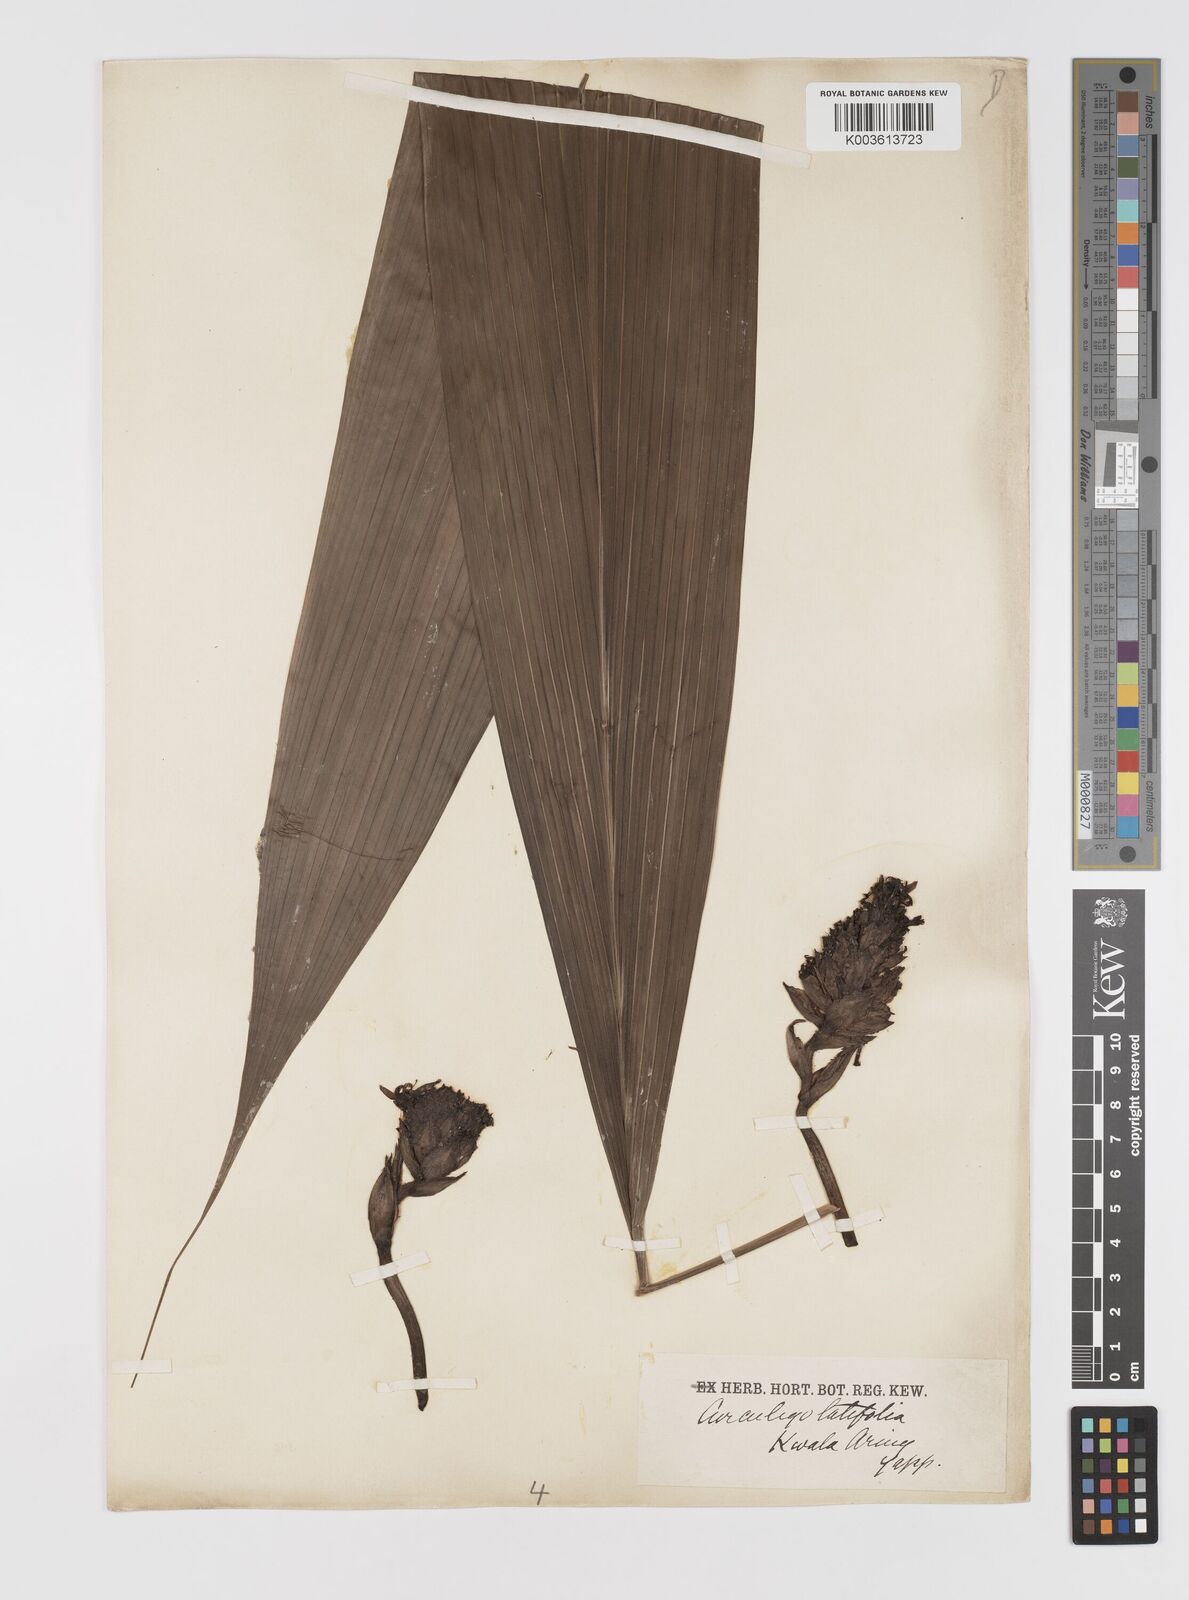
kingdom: Plantae
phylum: Tracheophyta
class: Liliopsida
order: Asparagales
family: Hypoxidaceae
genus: Curculigo
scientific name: Curculigo latifolia
